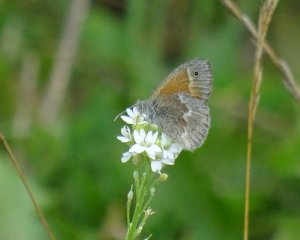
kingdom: Animalia
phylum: Arthropoda
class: Insecta
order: Lepidoptera
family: Nymphalidae
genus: Coenonympha
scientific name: Coenonympha tullia
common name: Large Heath
